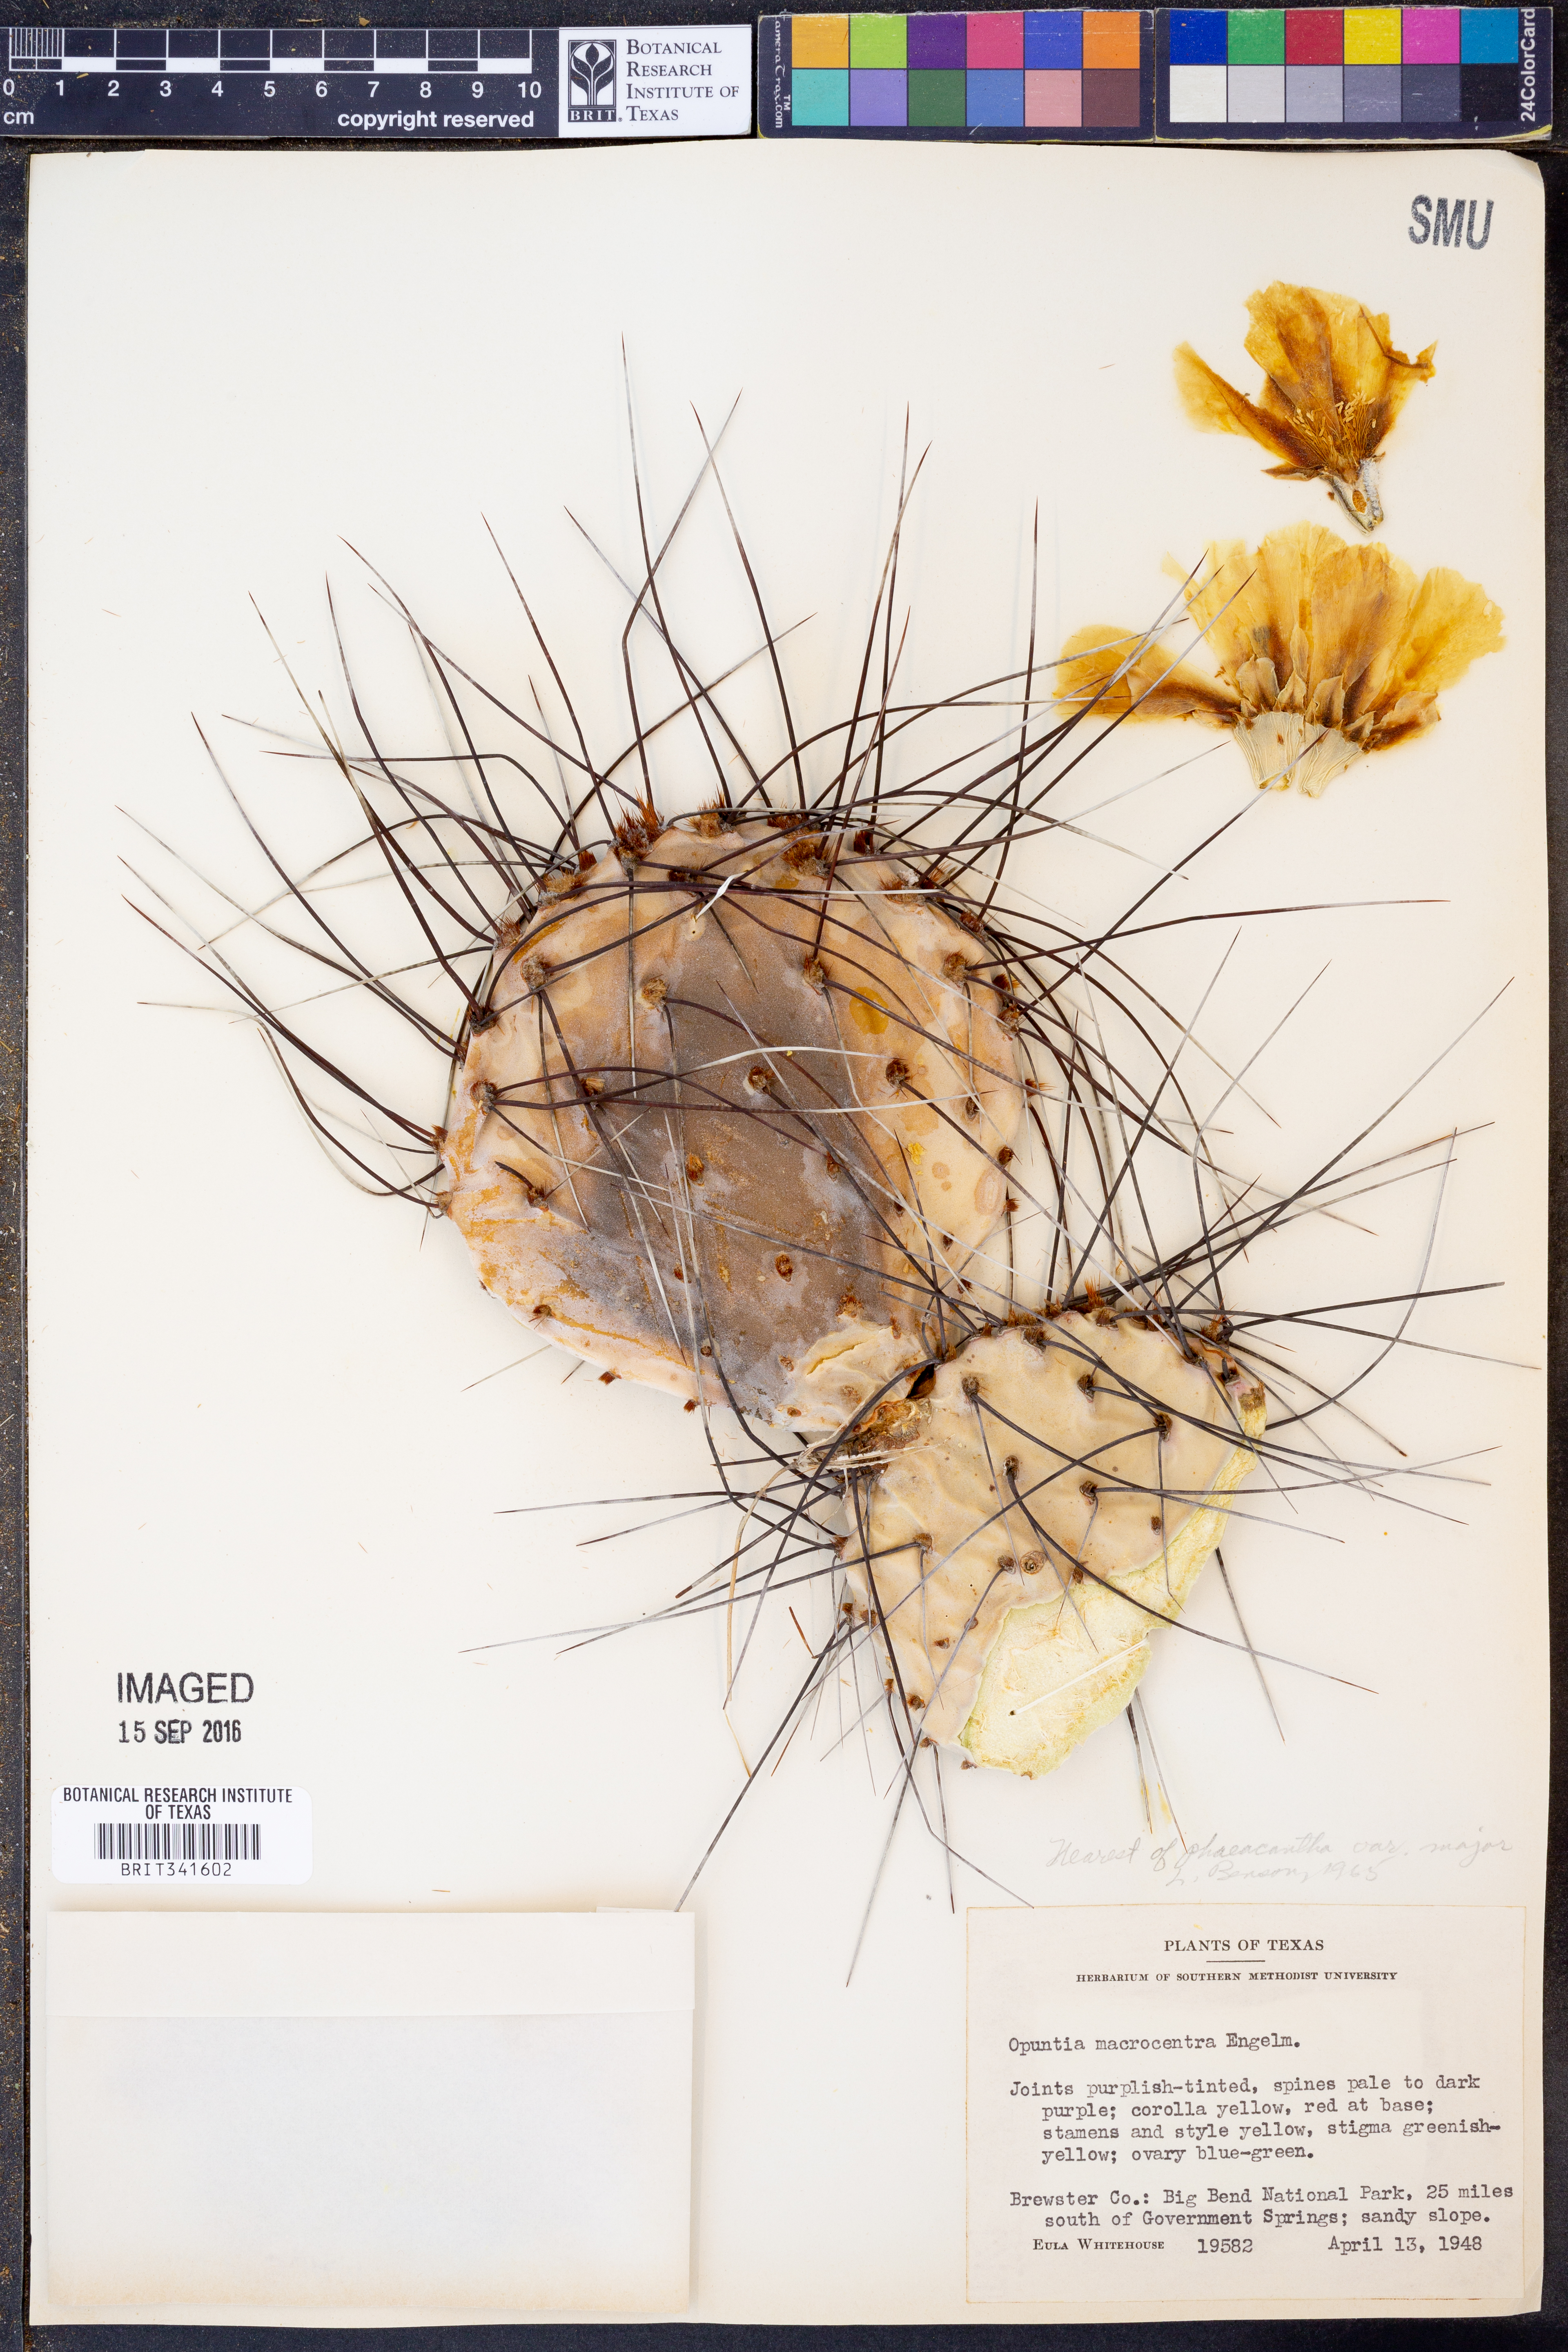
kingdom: Plantae
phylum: Tracheophyta
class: Magnoliopsida
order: Caryophyllales
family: Cactaceae
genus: Opuntia
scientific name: Opuntia phaeacantha
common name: New mexico prickly-pear
